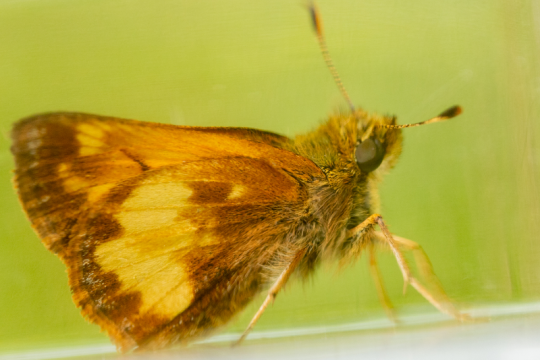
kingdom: Animalia
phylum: Arthropoda
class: Insecta
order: Lepidoptera
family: Hesperiidae
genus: Lon
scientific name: Lon hobomok
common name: Hobomok Skipper
